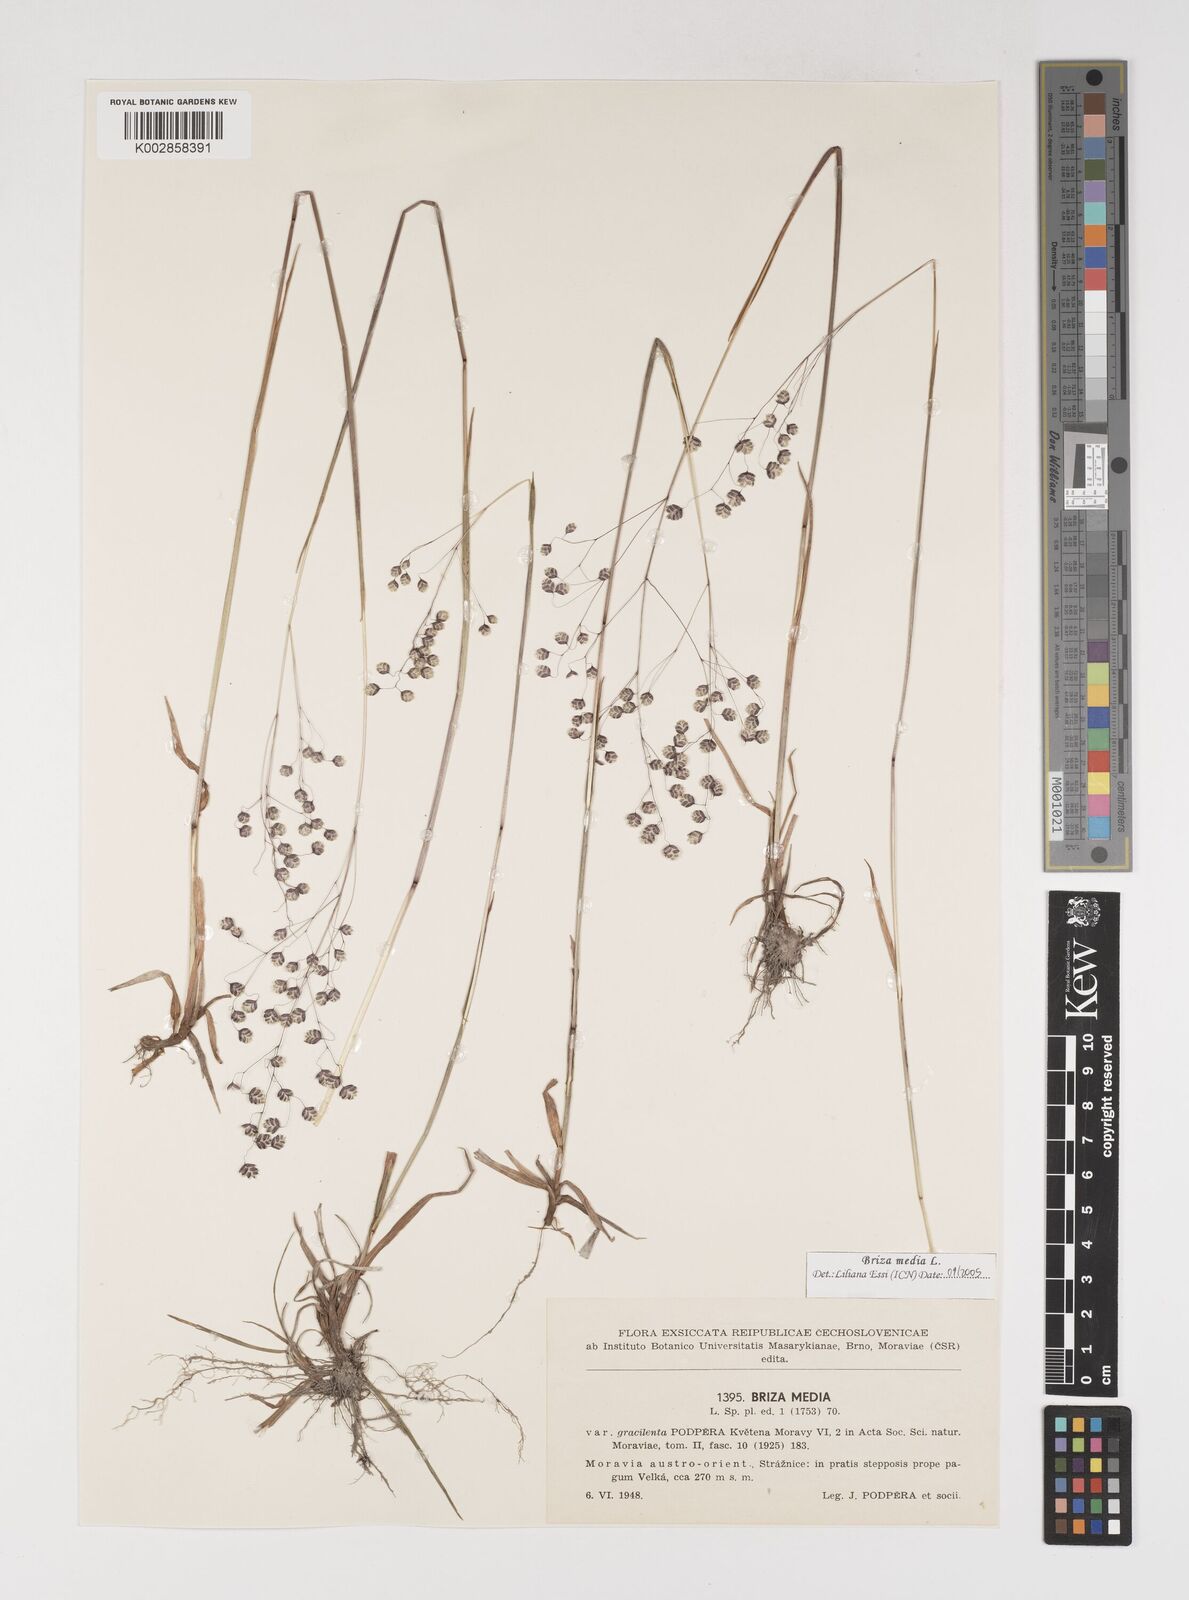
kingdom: Plantae
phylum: Tracheophyta
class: Liliopsida
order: Poales
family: Poaceae
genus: Briza
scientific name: Briza media
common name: Quaking grass
